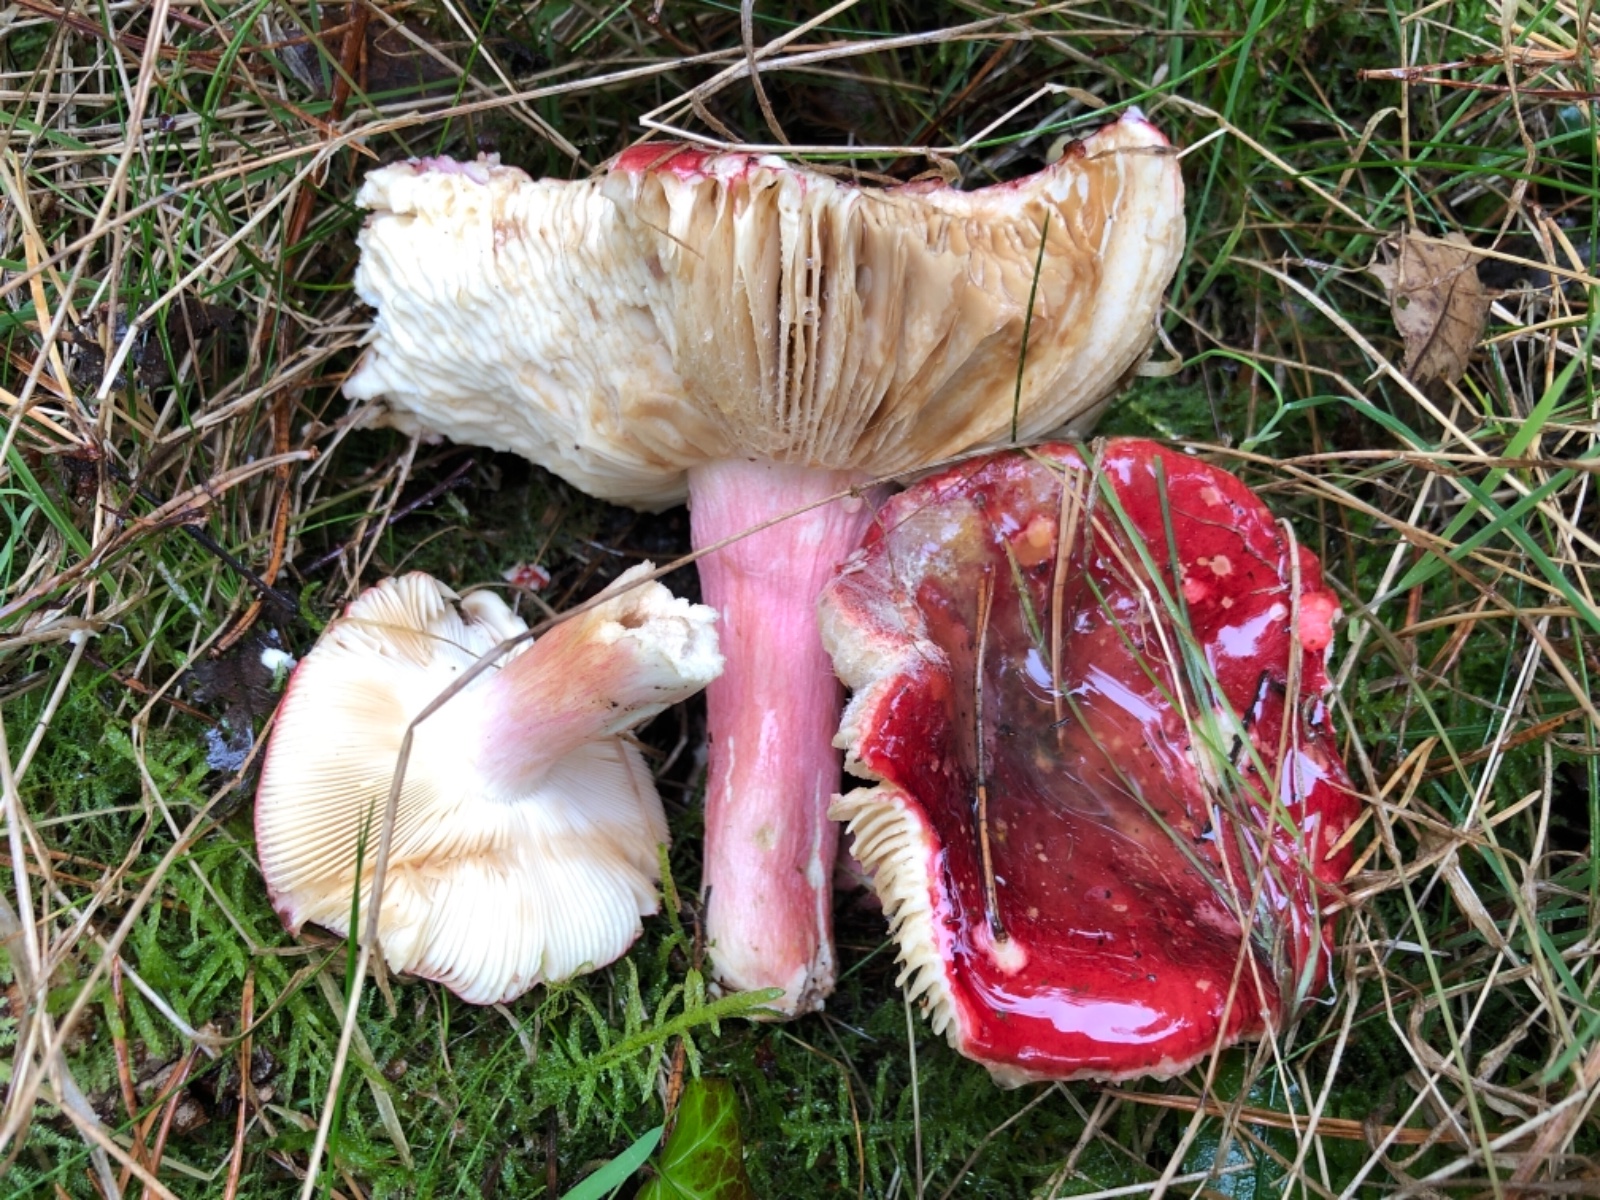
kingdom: Fungi
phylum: Basidiomycota
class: Agaricomycetes
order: Russulales
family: Russulaceae
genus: Russula
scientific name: Russula xerampelina
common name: hummer-skørhat
